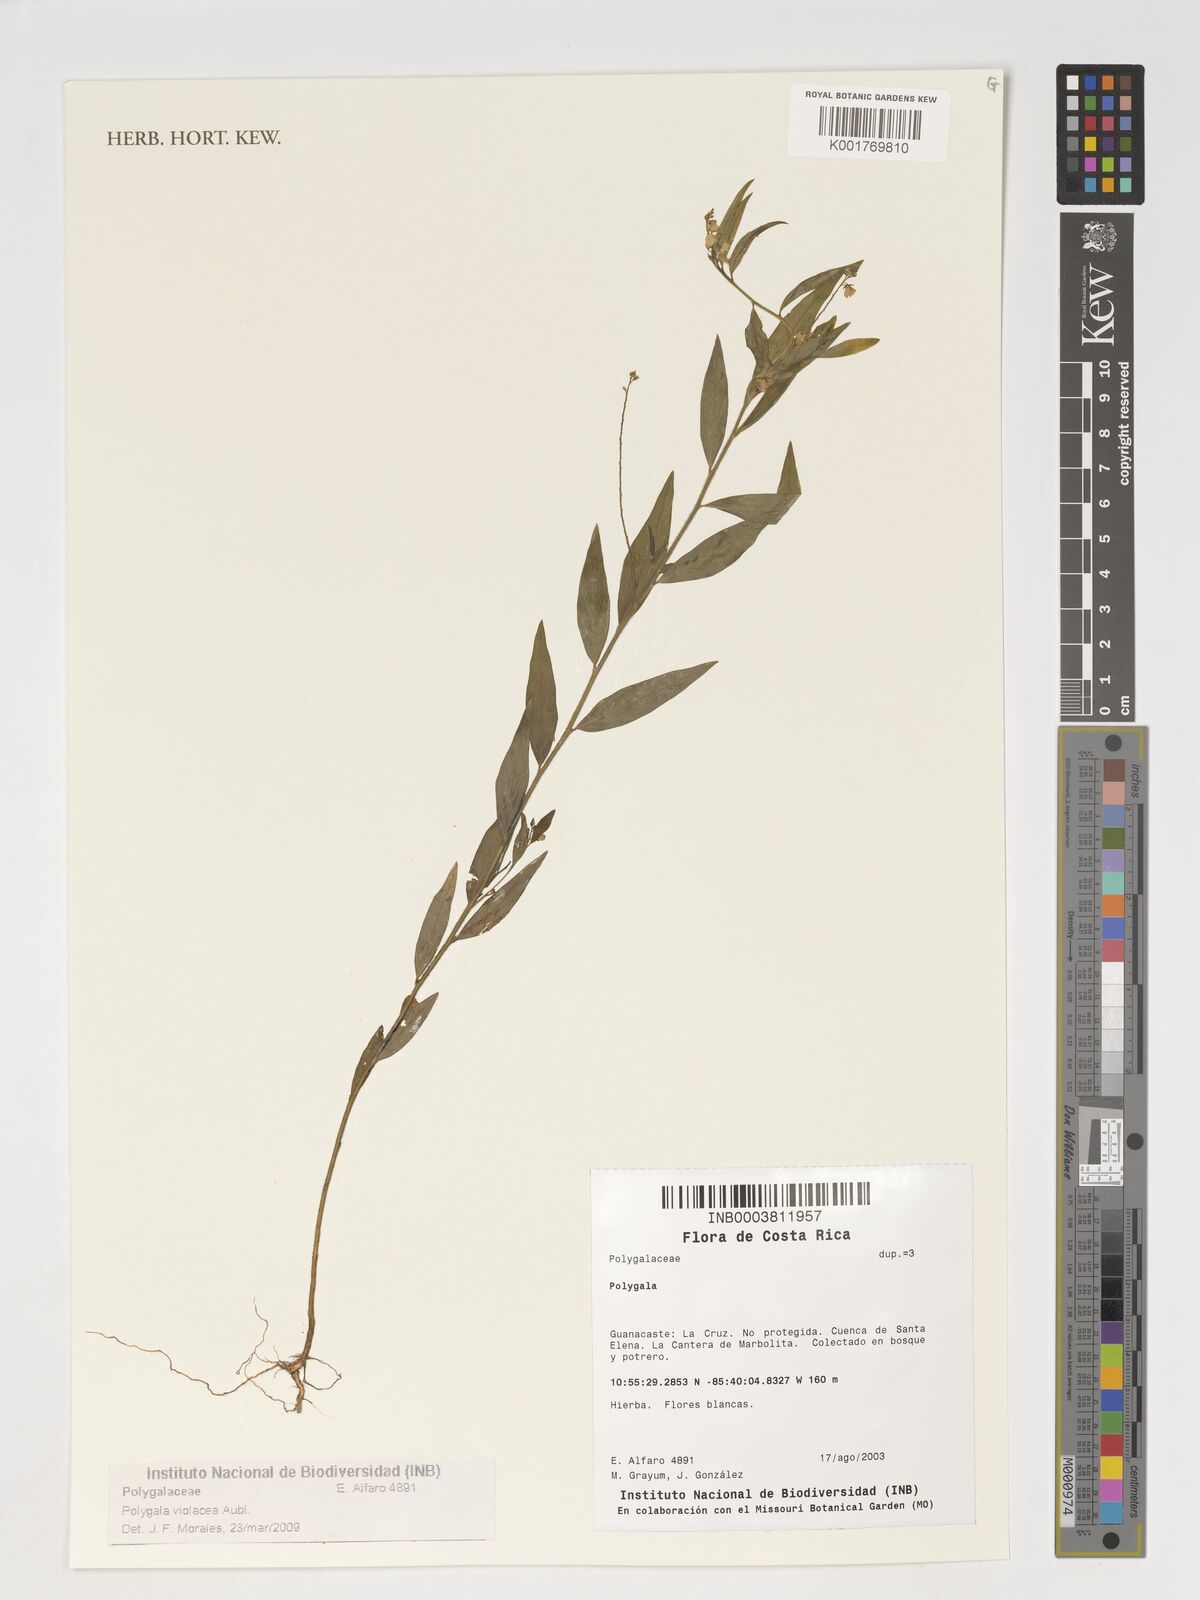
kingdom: Plantae
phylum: Tracheophyta
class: Magnoliopsida
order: Fabales
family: Polygalaceae
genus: Asemeia
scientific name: Asemeia violacea
